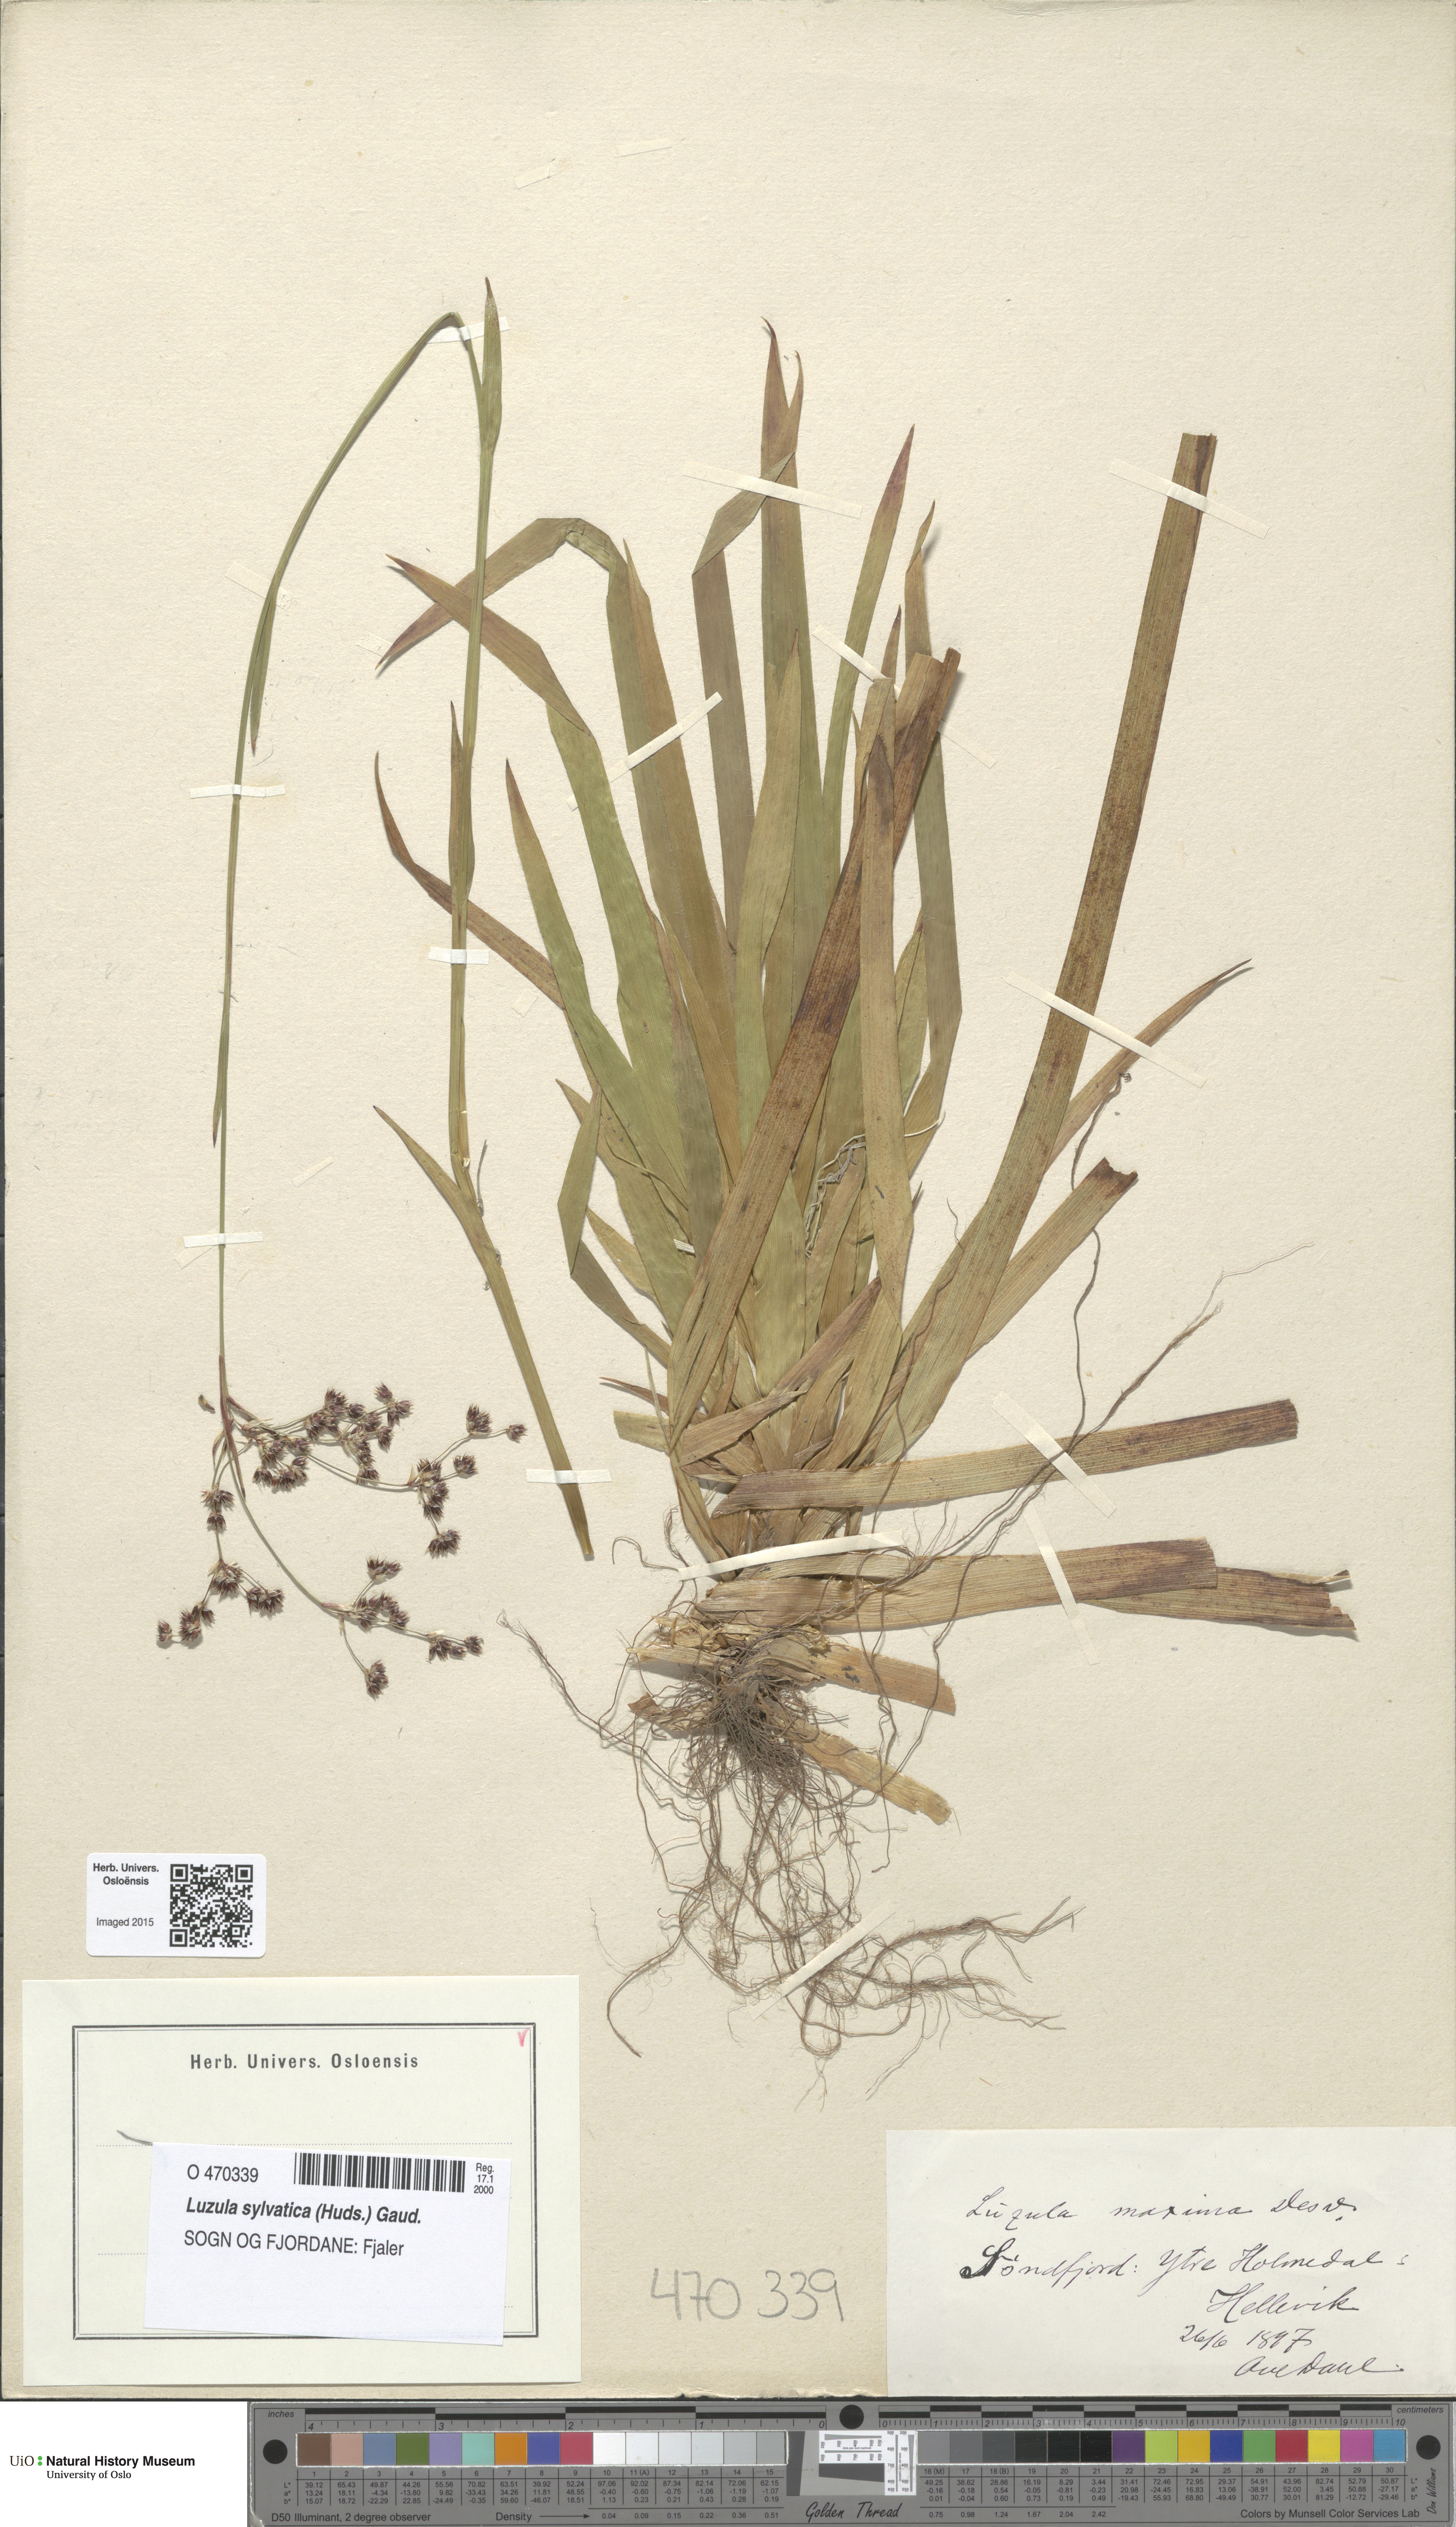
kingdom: Plantae
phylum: Tracheophyta
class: Liliopsida
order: Poales
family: Juncaceae
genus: Luzula
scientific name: Luzula sylvatica
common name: Great wood-rush
